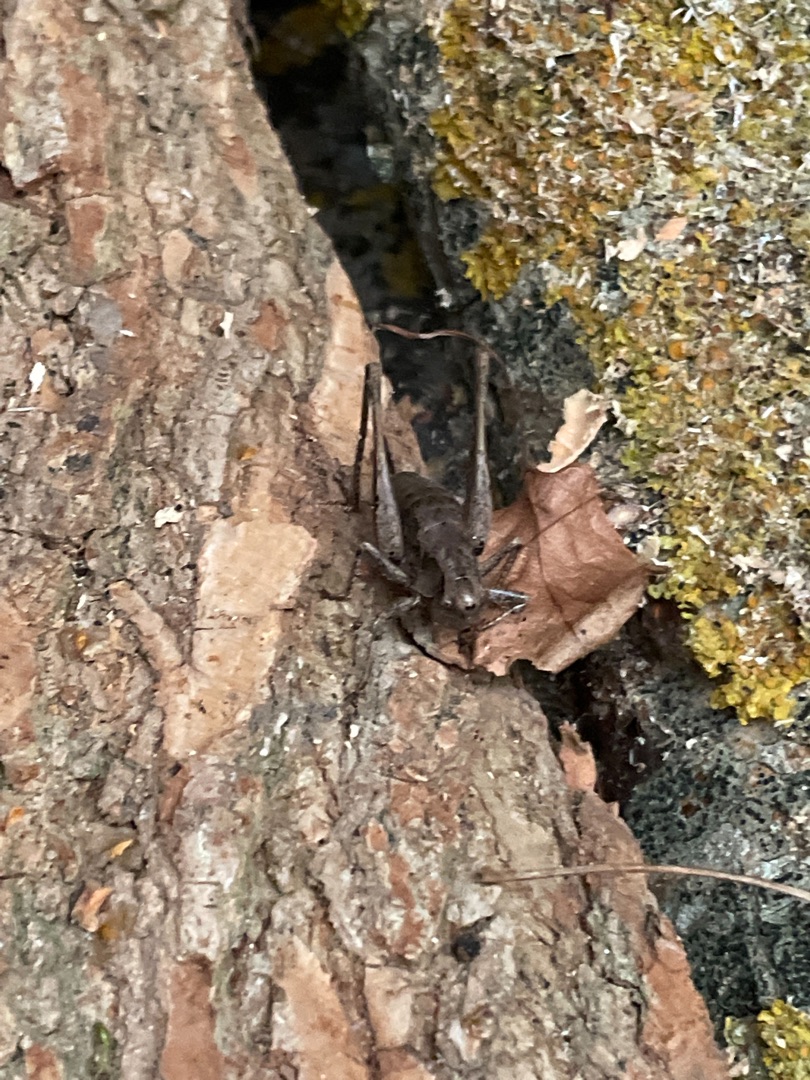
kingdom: Animalia
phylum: Arthropoda
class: Insecta
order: Orthoptera
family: Tettigoniidae
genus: Pholidoptera
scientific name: Pholidoptera griseoaptera
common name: Buskgræshoppe
